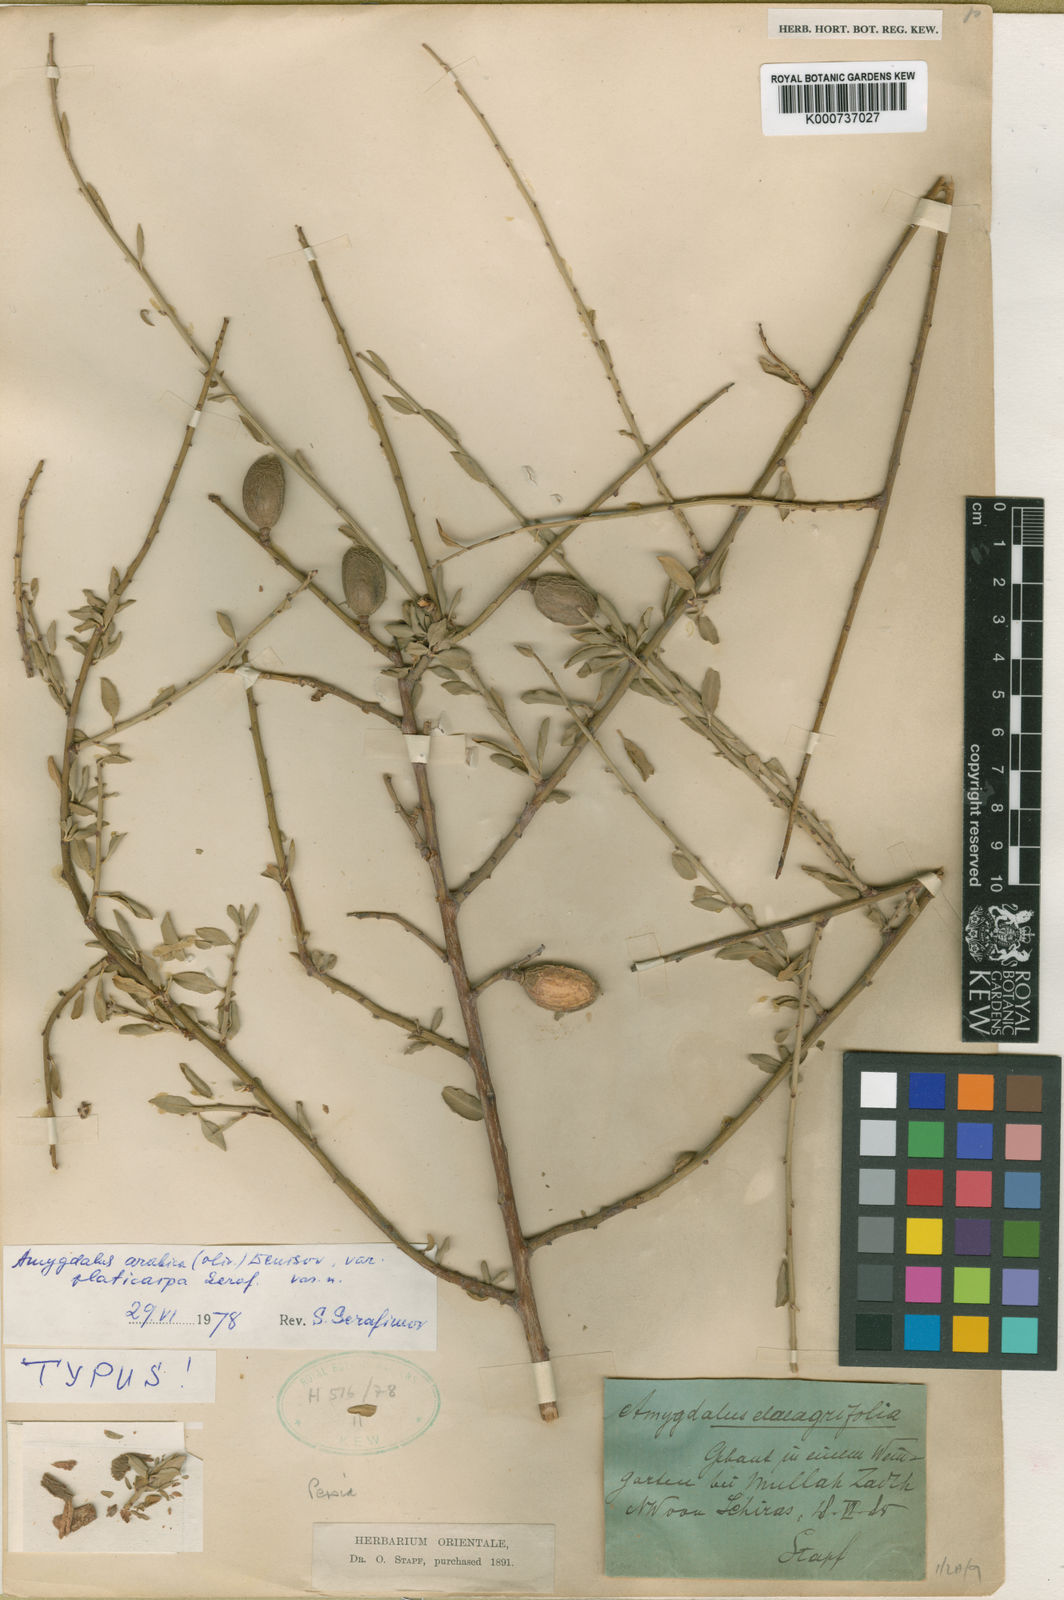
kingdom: Plantae
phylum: Tracheophyta
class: Magnoliopsida
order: Rosales
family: Rosaceae
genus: Prunus
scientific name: Prunus arabica
